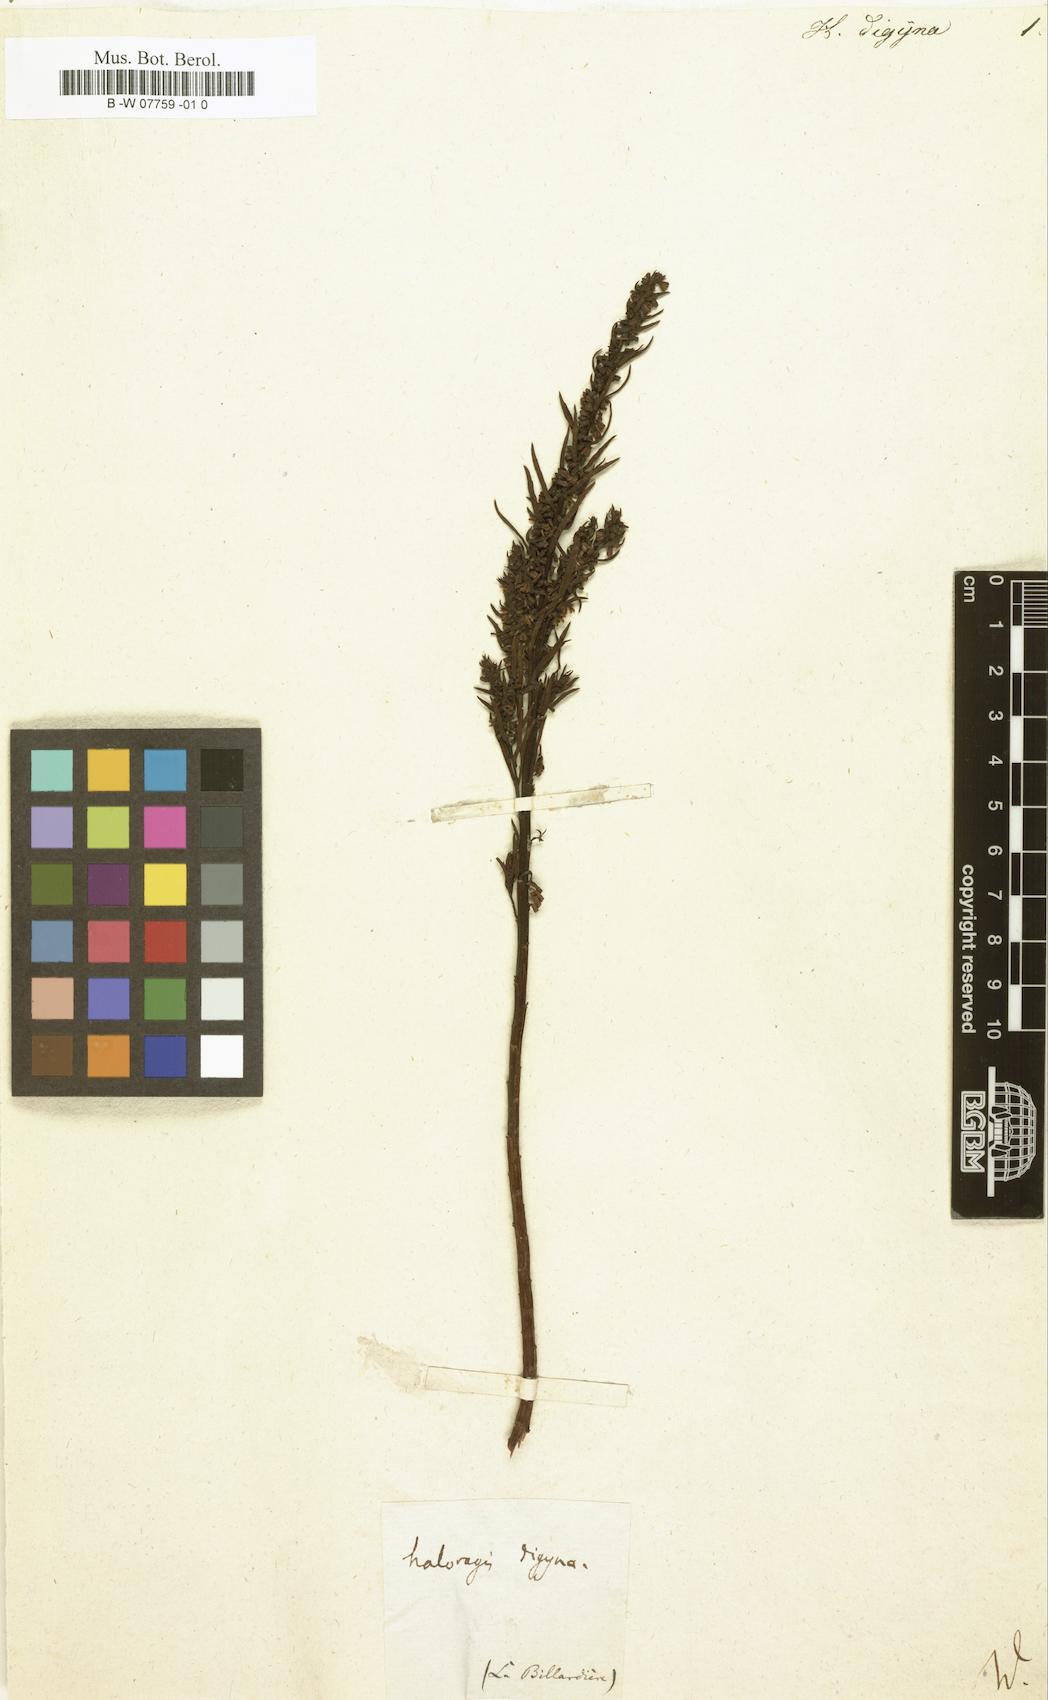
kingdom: Plantae
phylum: Tracheophyta
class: Magnoliopsida
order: Saxifragales
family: Haloragaceae
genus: Haloragis
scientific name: Haloragis digyna
